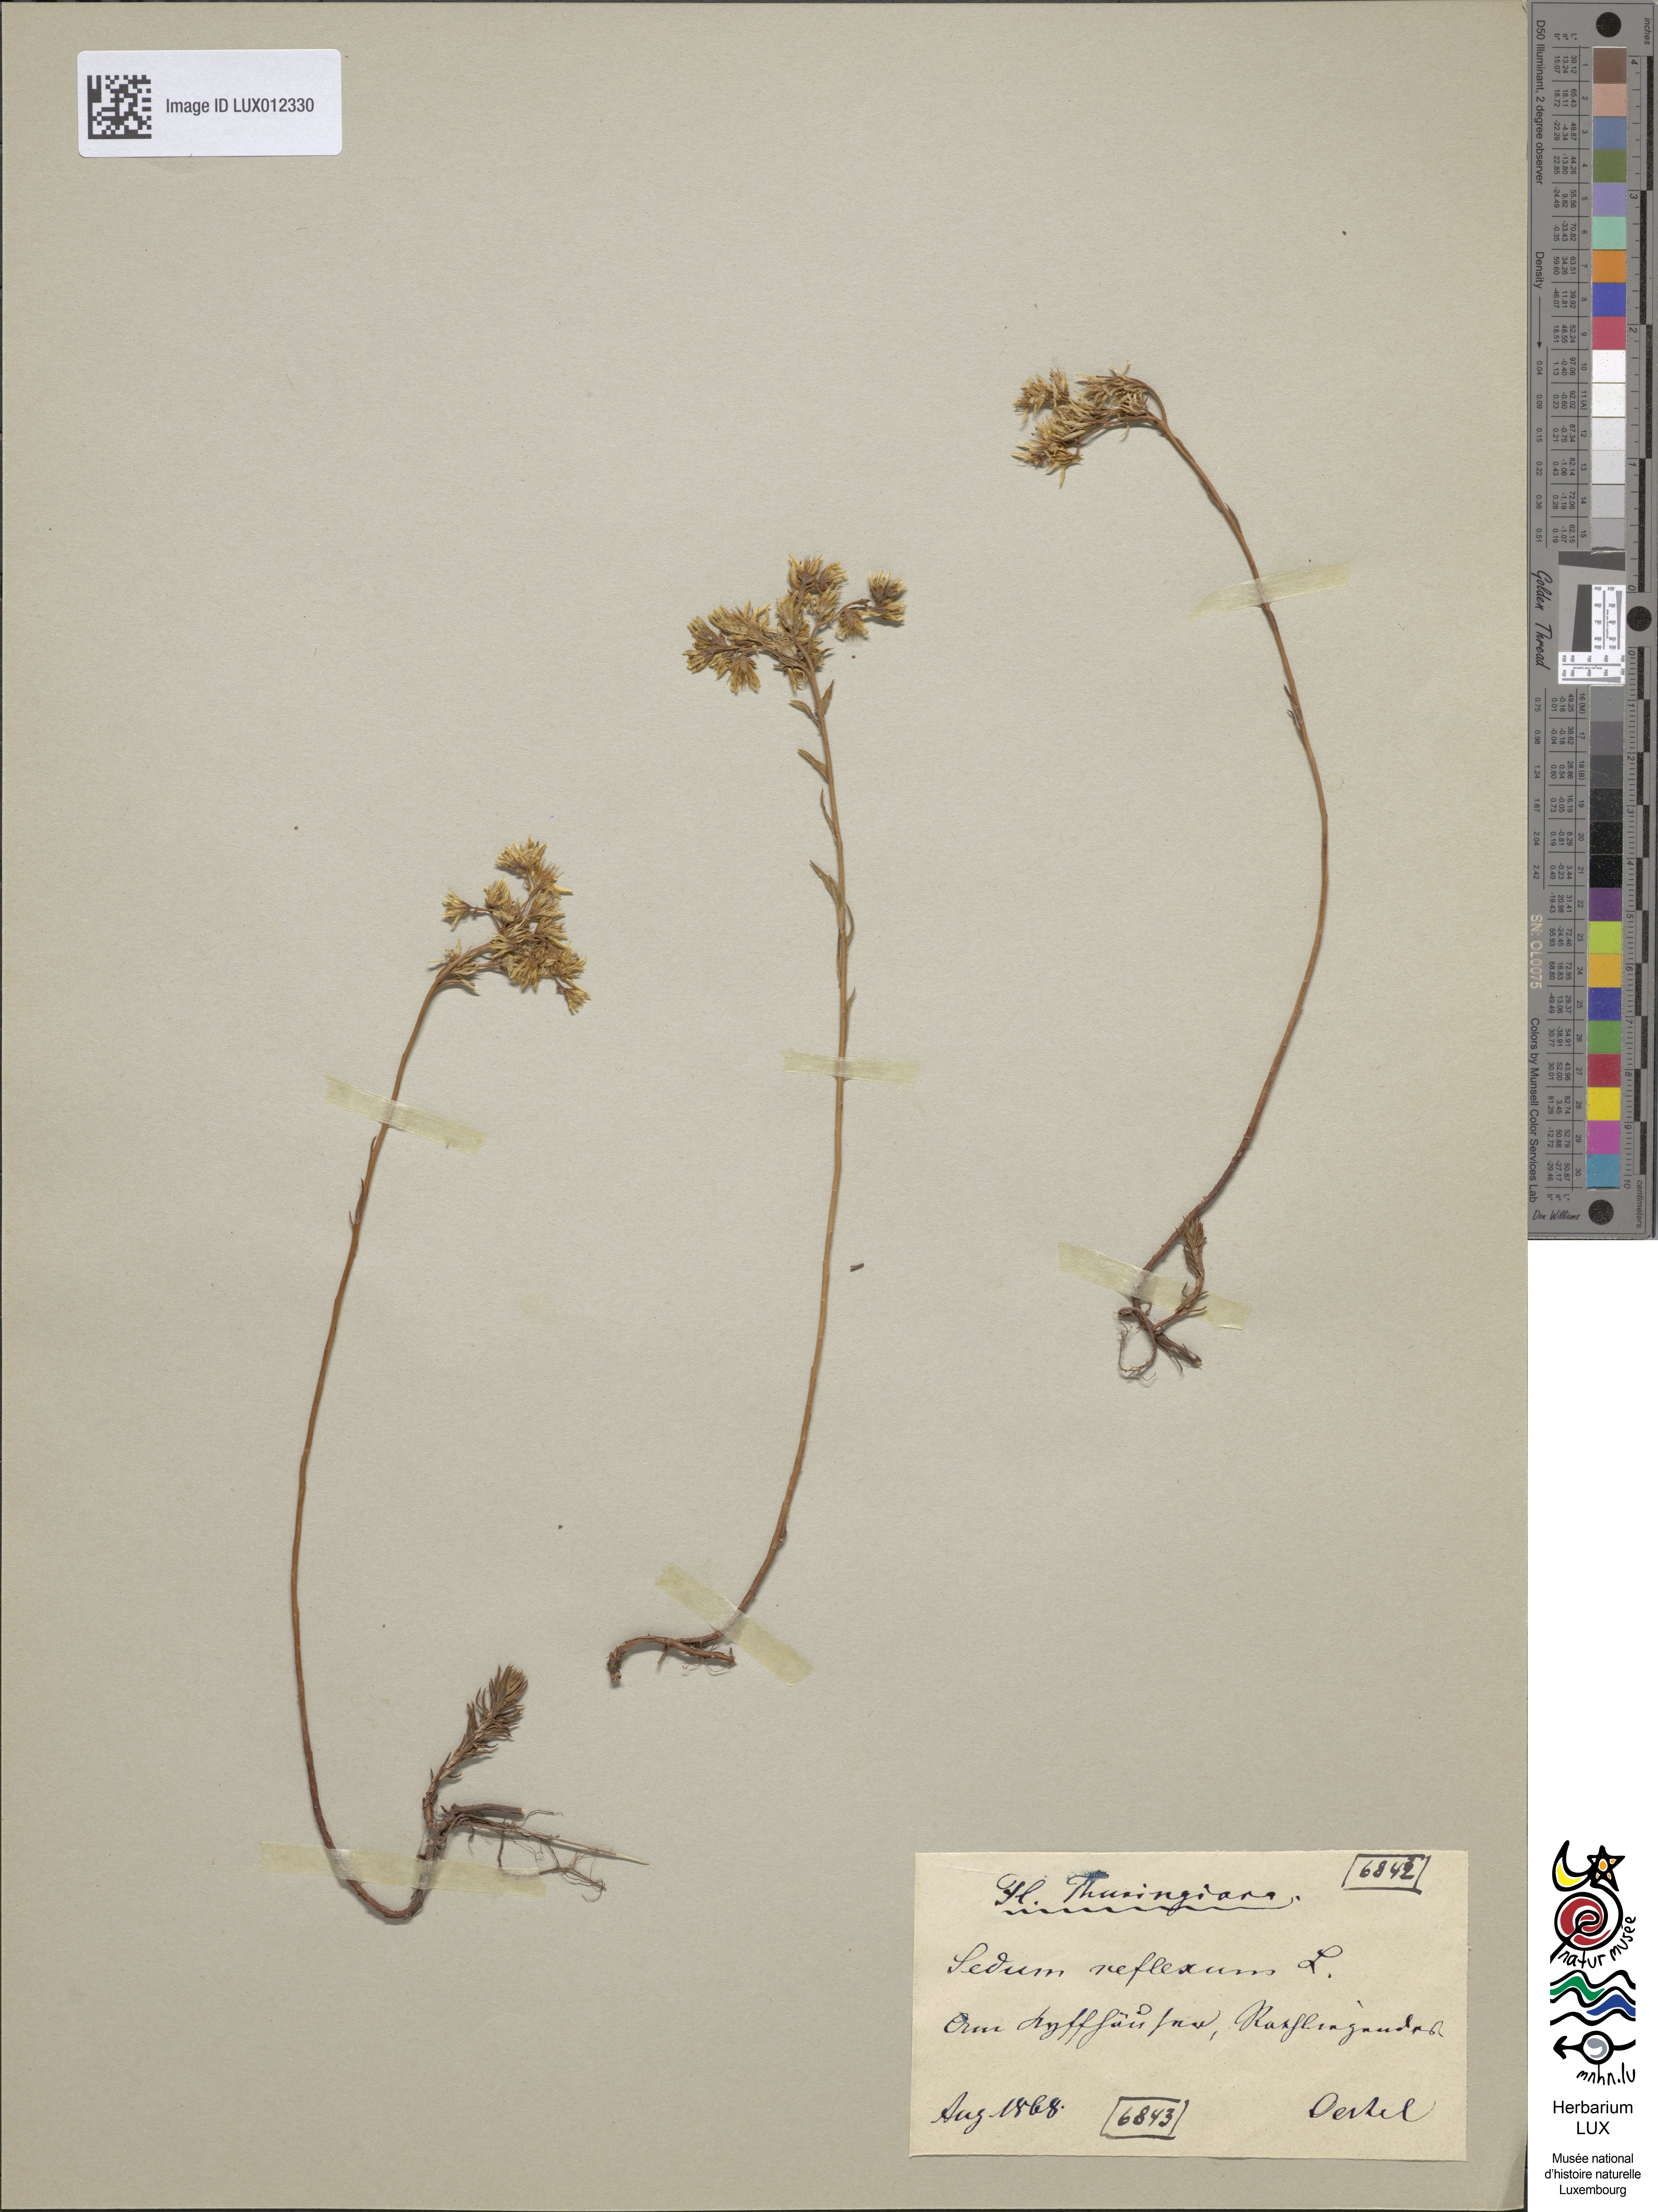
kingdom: Plantae
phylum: Tracheophyta
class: Magnoliopsida
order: Saxifragales
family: Crassulaceae
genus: Petrosedum
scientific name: Petrosedum rupestre
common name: Jenny's stonecrop
